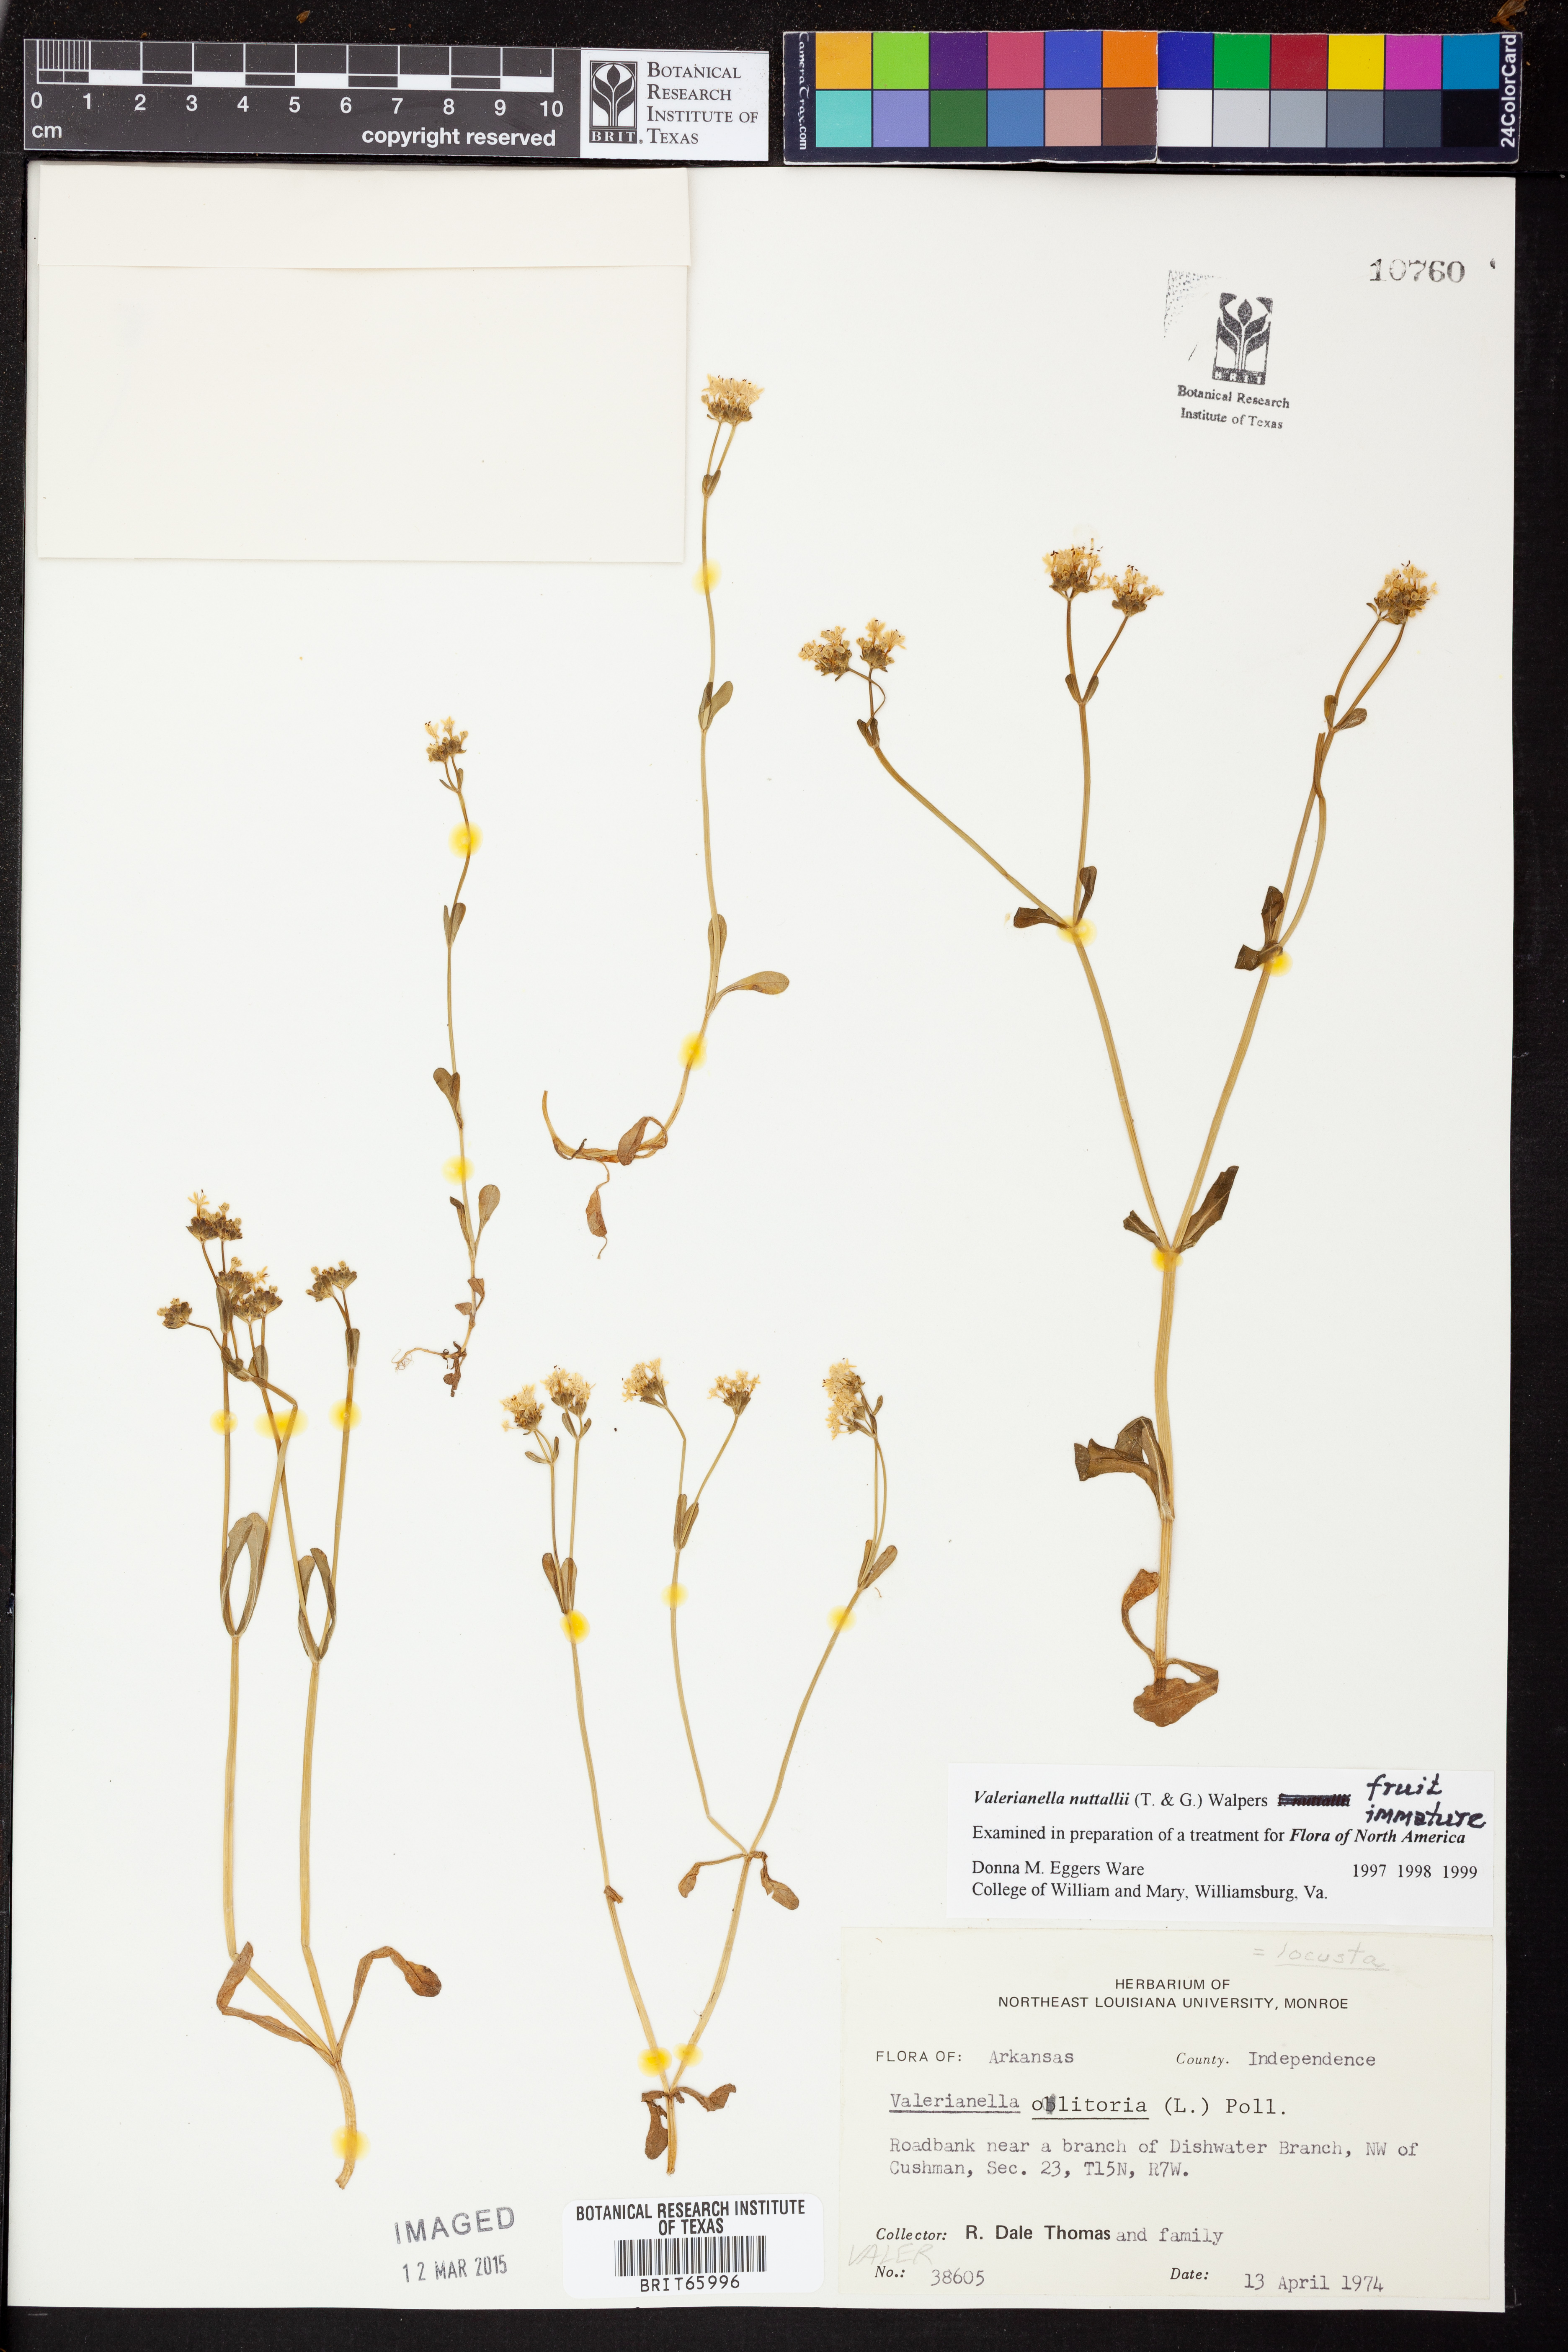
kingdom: Plantae
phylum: Tracheophyta
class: Magnoliopsida
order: Dipsacales
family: Caprifoliaceae
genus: Valerianella
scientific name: Valerianella nuttallii
